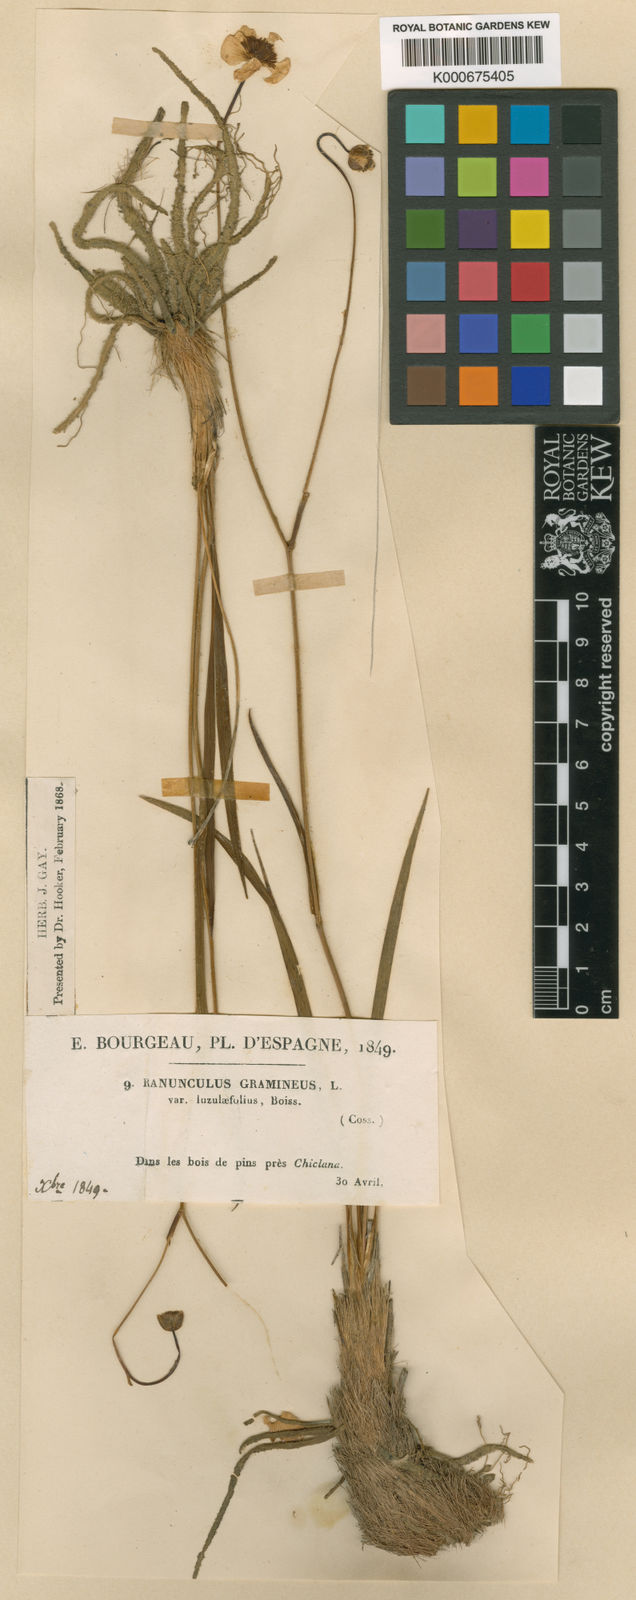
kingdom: Plantae
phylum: Tracheophyta
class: Magnoliopsida
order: Ranunculales
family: Ranunculaceae
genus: Ranunculus
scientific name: Ranunculus gramineus
